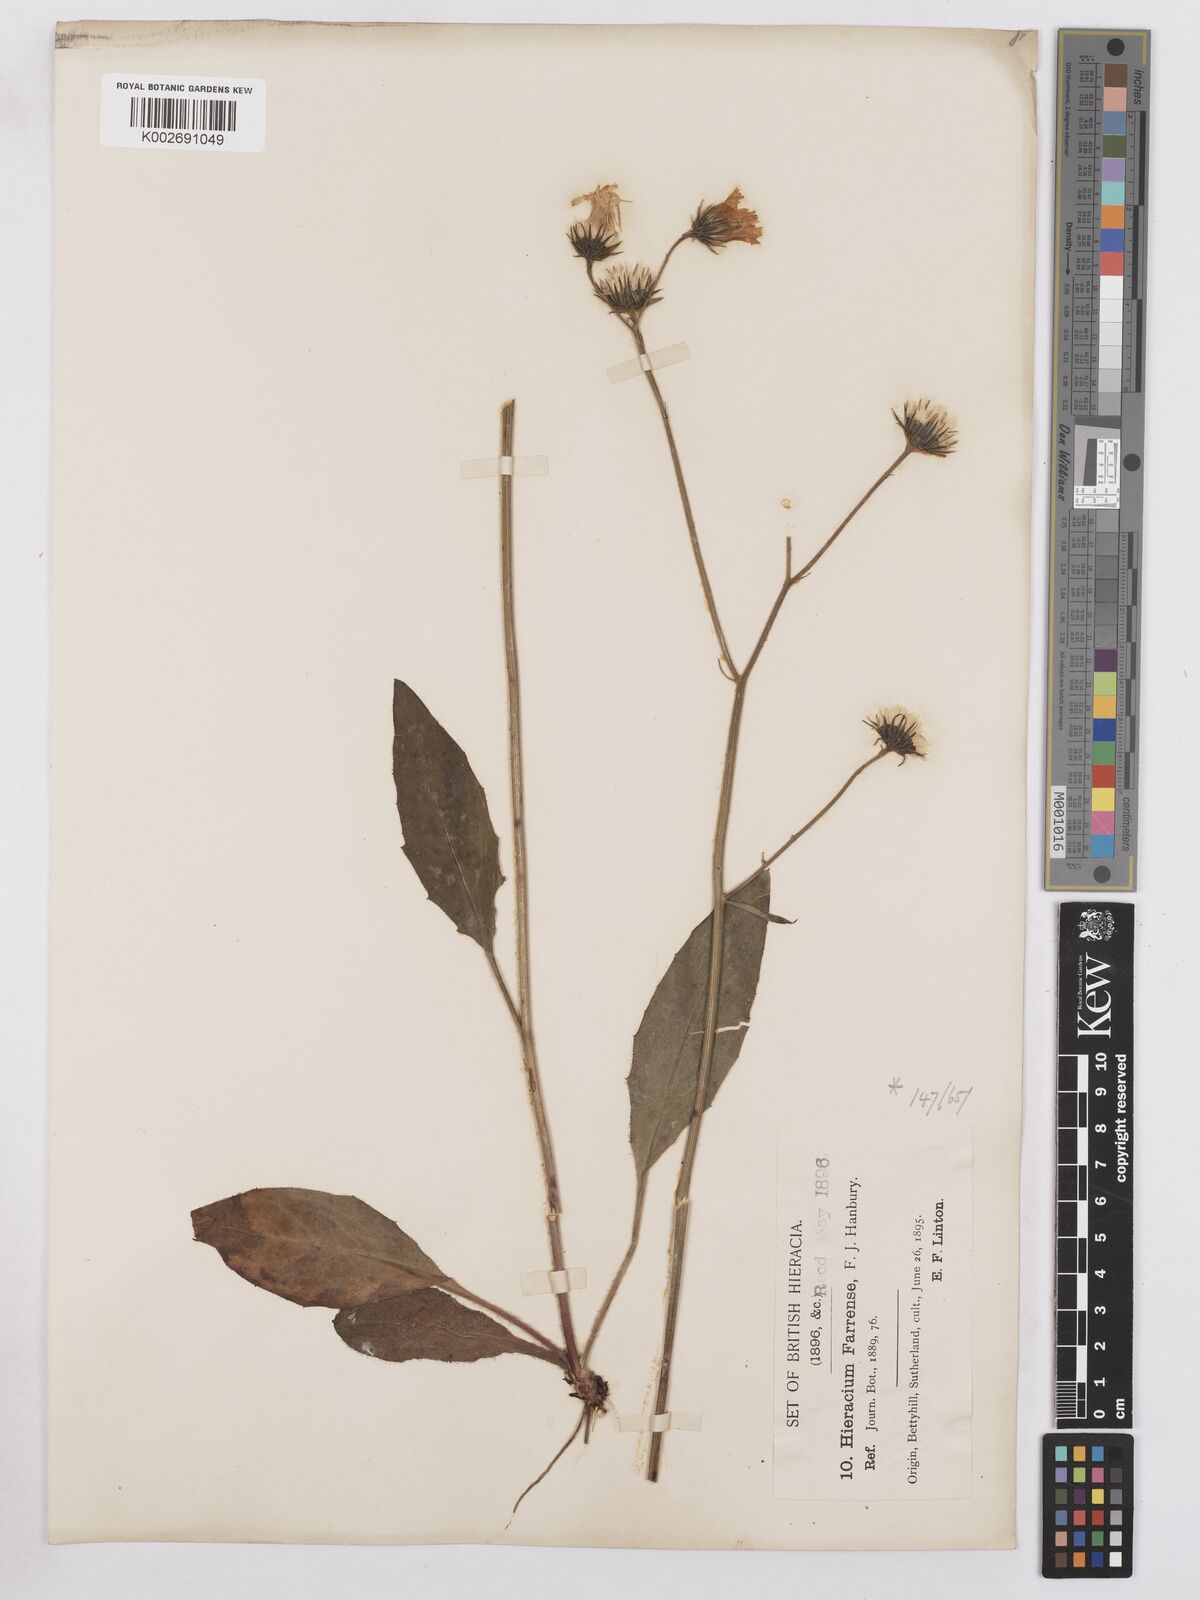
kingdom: Plantae
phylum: Tracheophyta
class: Magnoliopsida
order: Asterales
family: Asteraceae
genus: Hieracium
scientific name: Hieracium farrense
